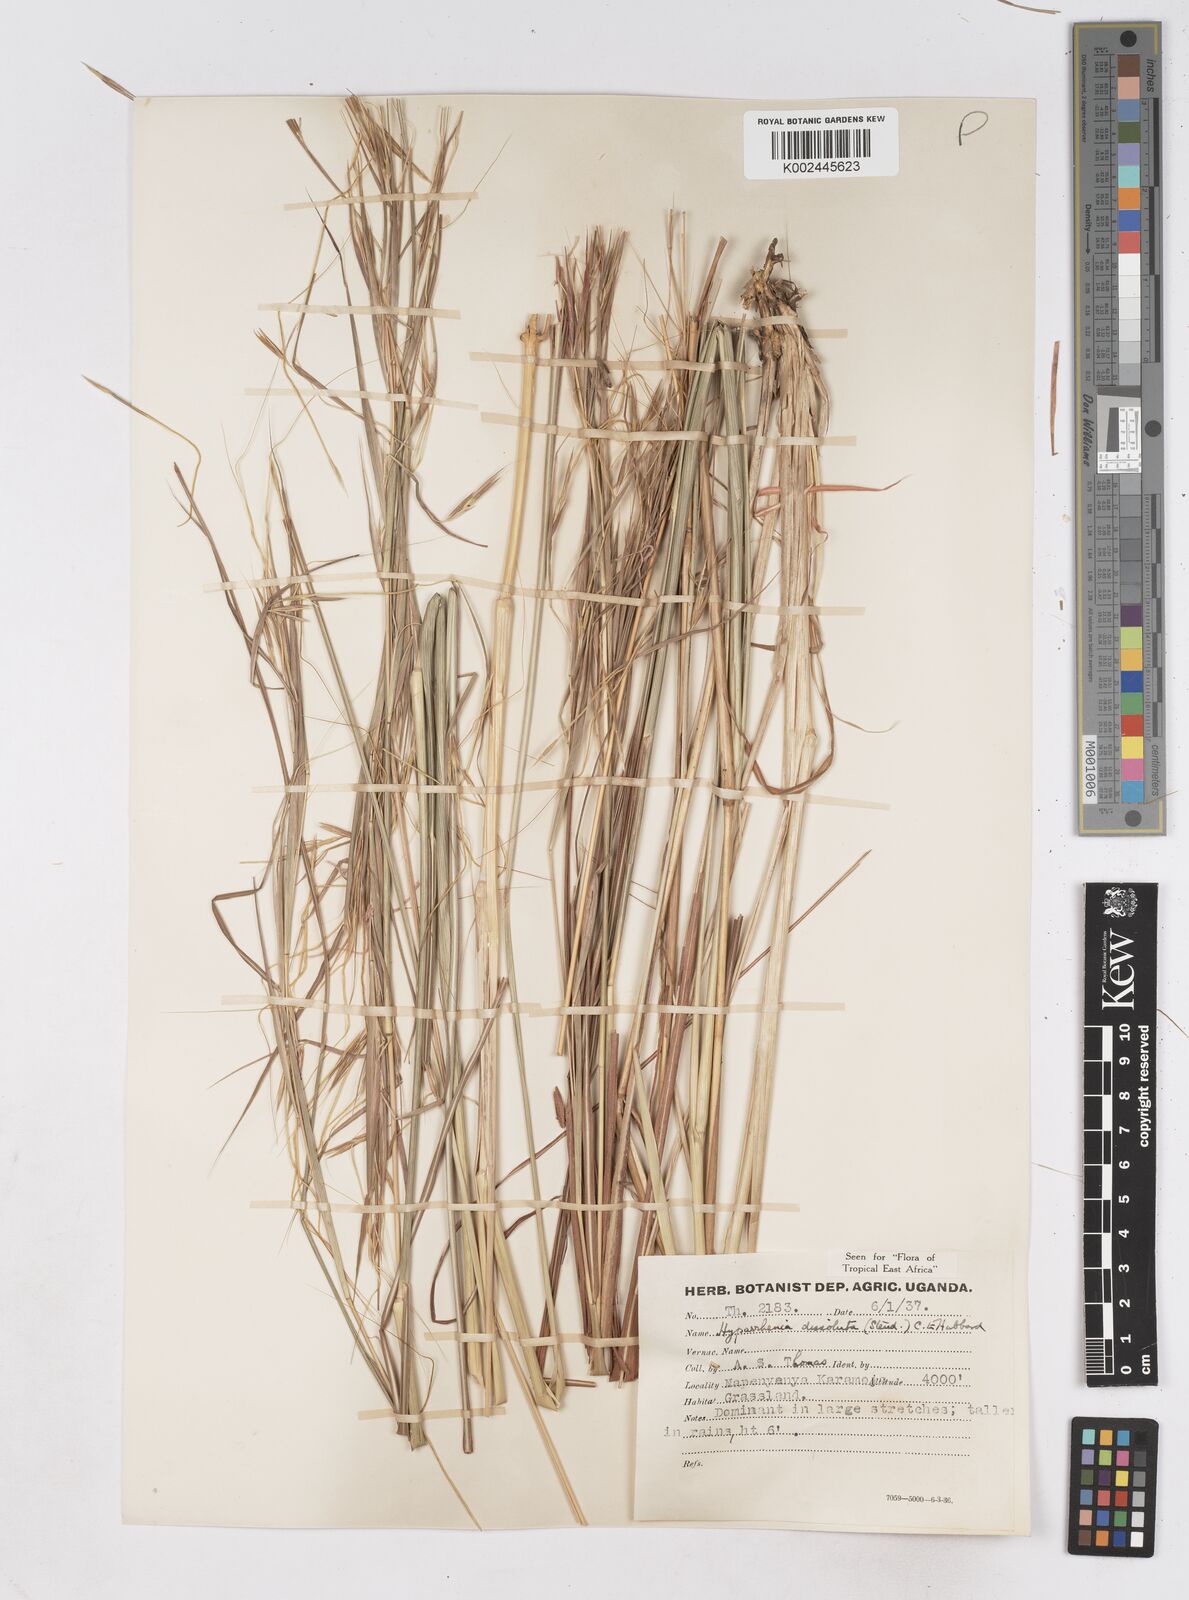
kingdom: Plantae
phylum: Tracheophyta
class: Liliopsida
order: Poales
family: Poaceae
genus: Hyperthelia
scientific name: Hyperthelia dissoluta
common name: Yellow thatching grass
